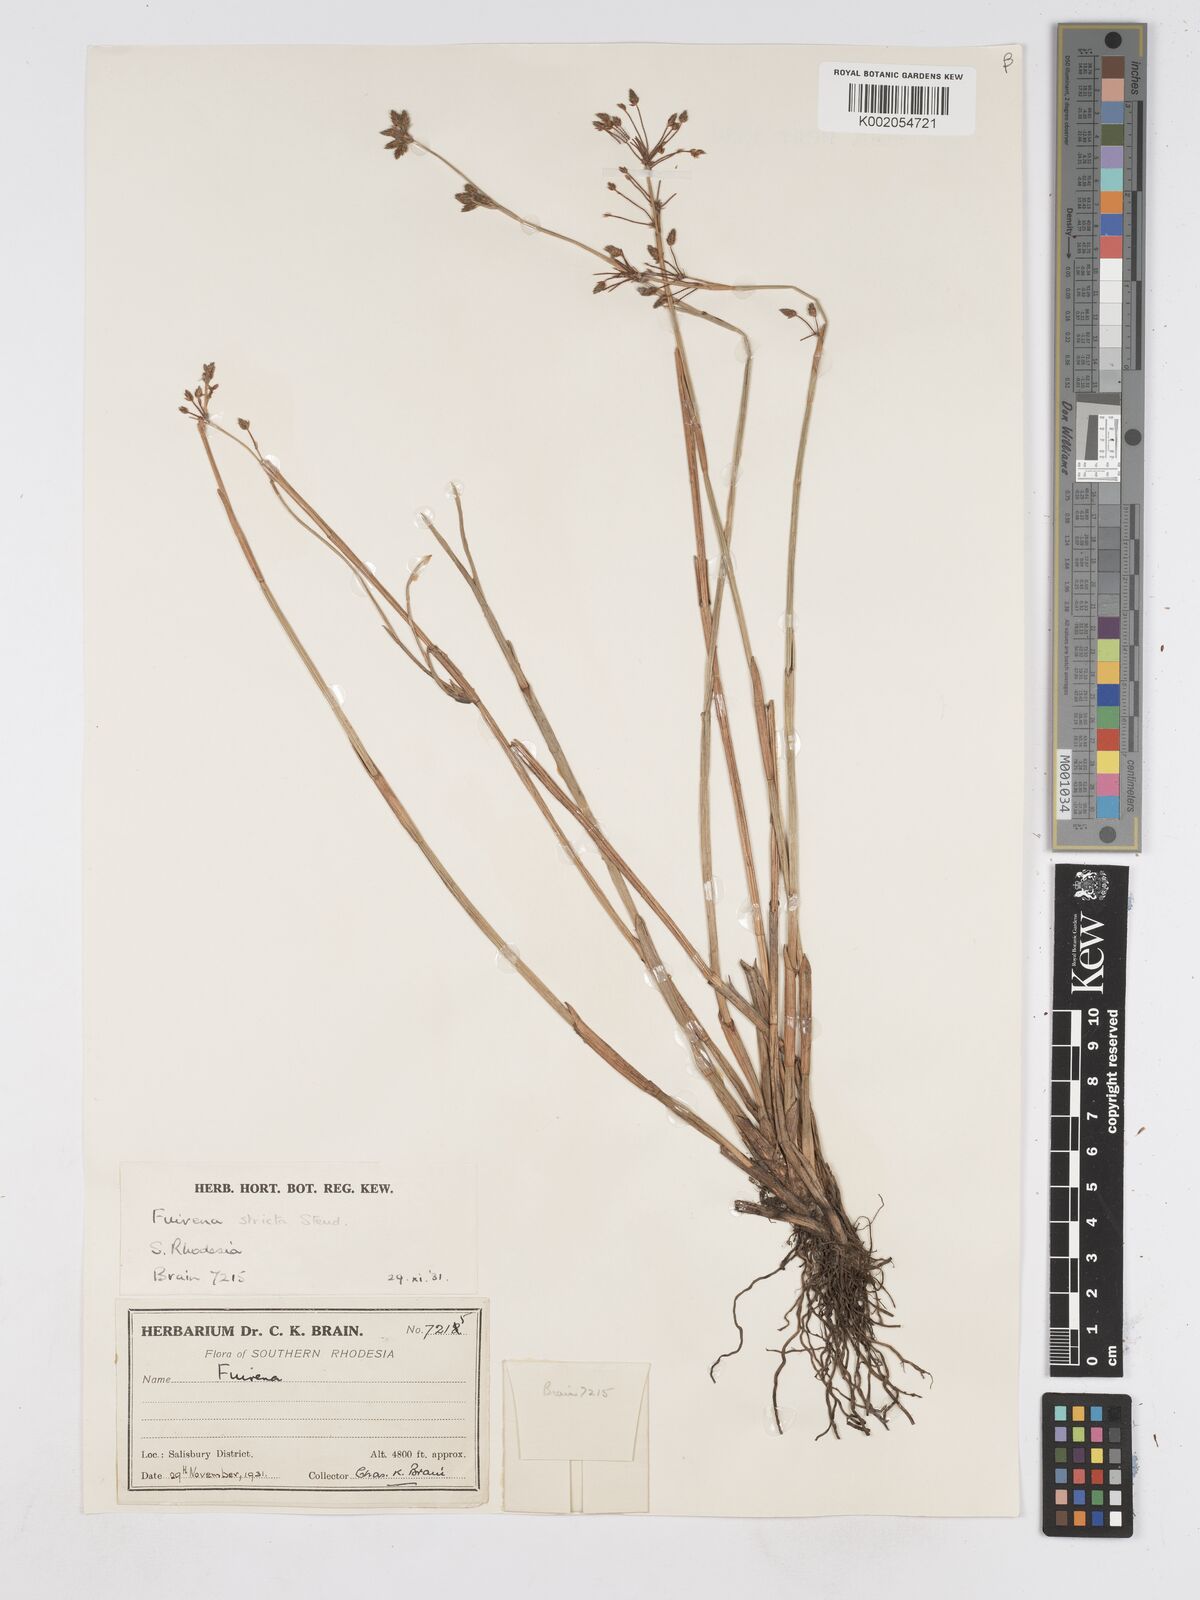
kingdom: Plantae
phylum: Tracheophyta
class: Liliopsida
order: Poales
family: Cyperaceae
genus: Fuirena
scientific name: Fuirena stricta
